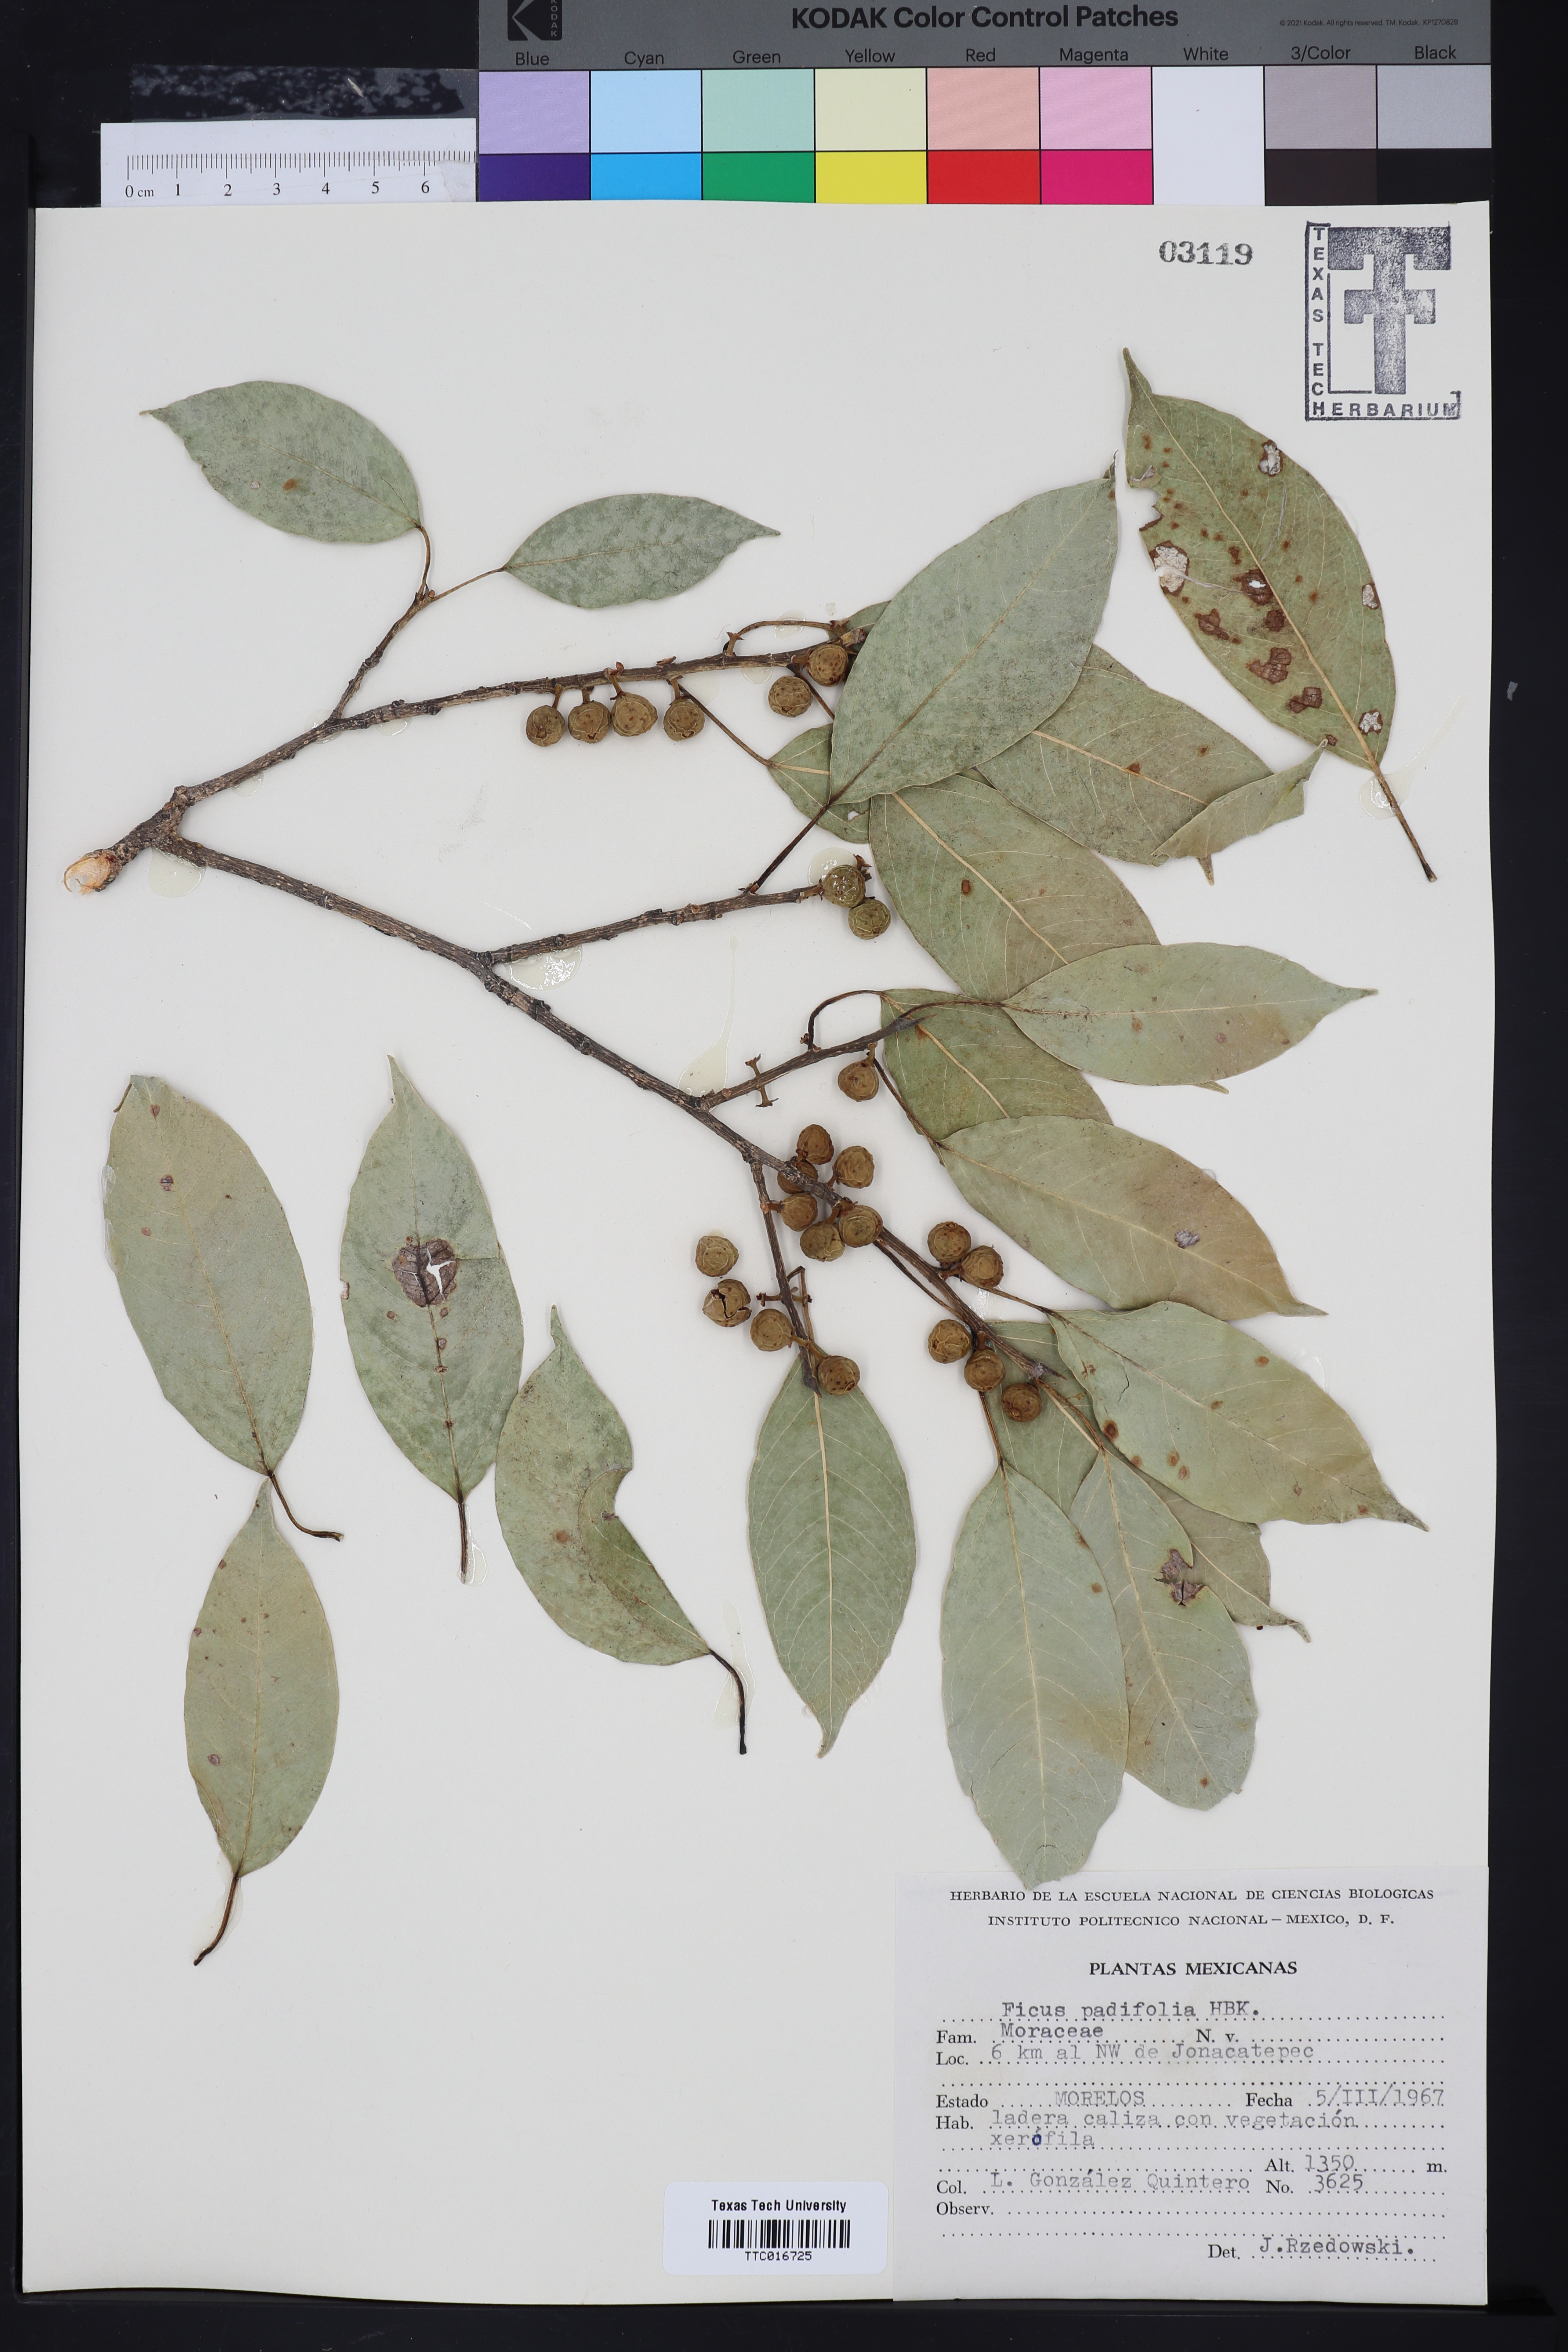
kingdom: Plantae
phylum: Tracheophyta
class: Magnoliopsida
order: Rosales
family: Moraceae
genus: Ficus
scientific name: Ficus padifolia
